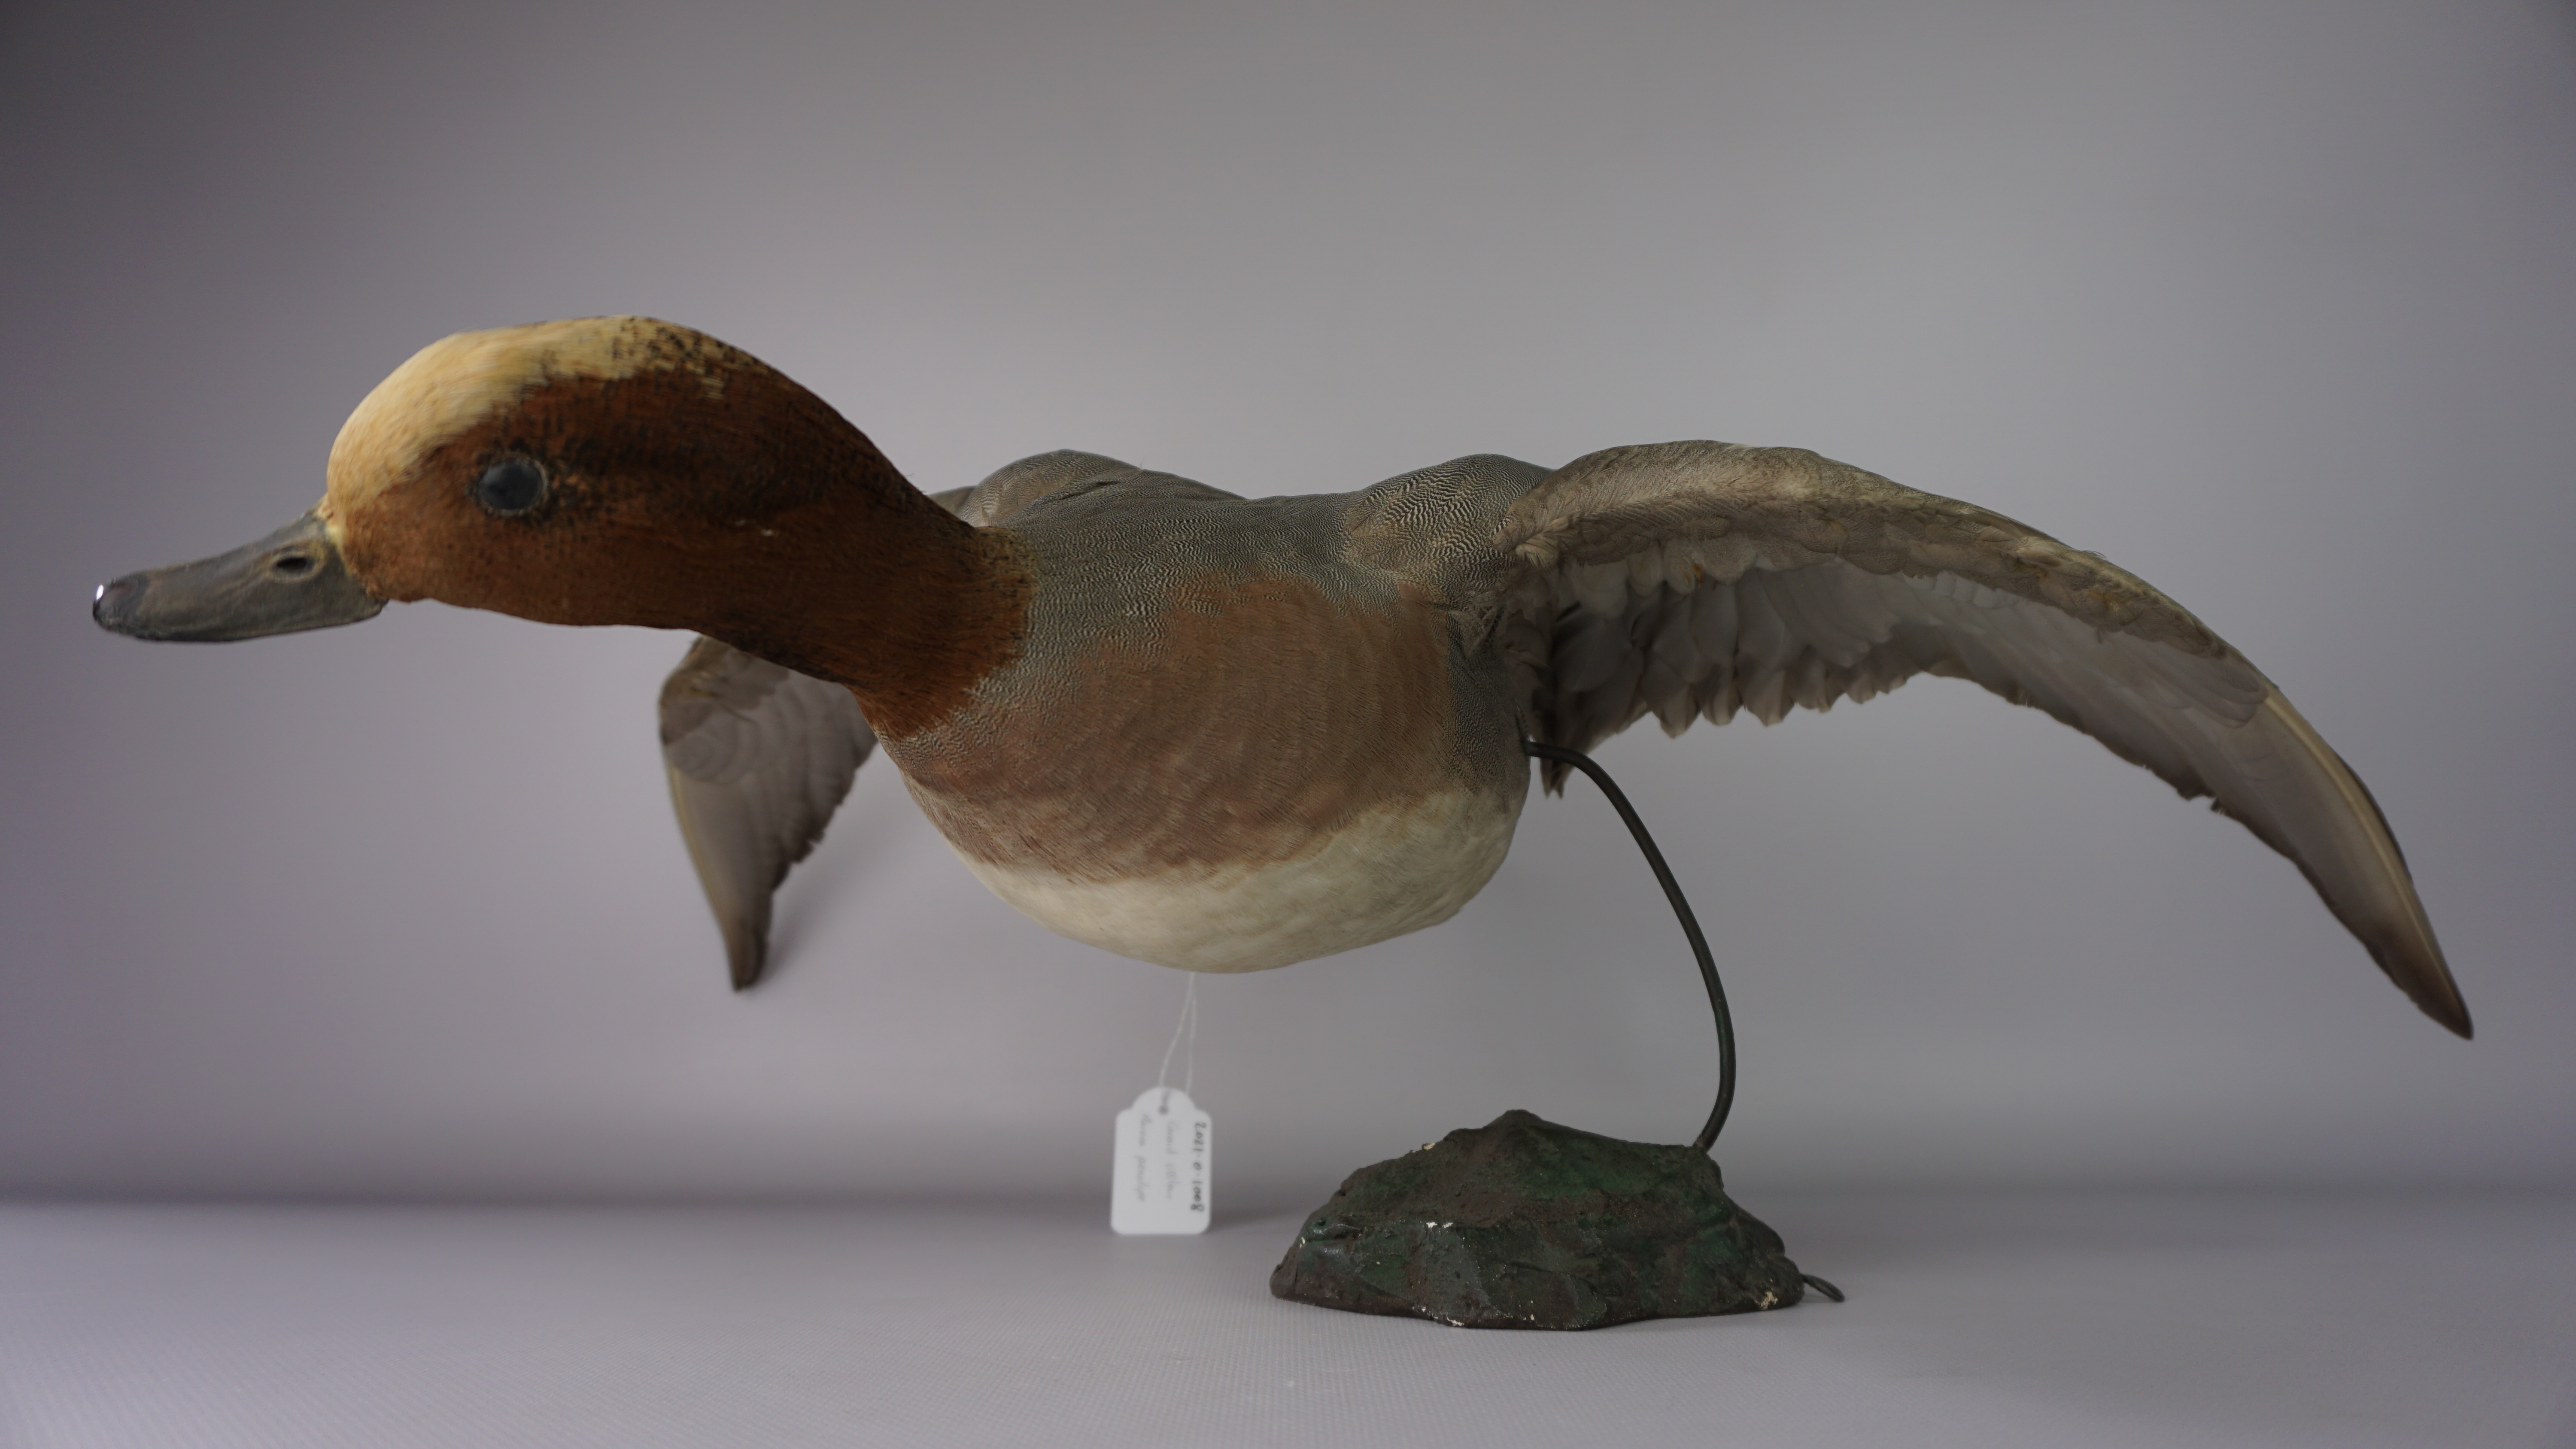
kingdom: Animalia
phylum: Chordata
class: Aves
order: Anseriformes
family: Anatidae
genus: Mareca
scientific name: Mareca penelope
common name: Eurasian wigeon
